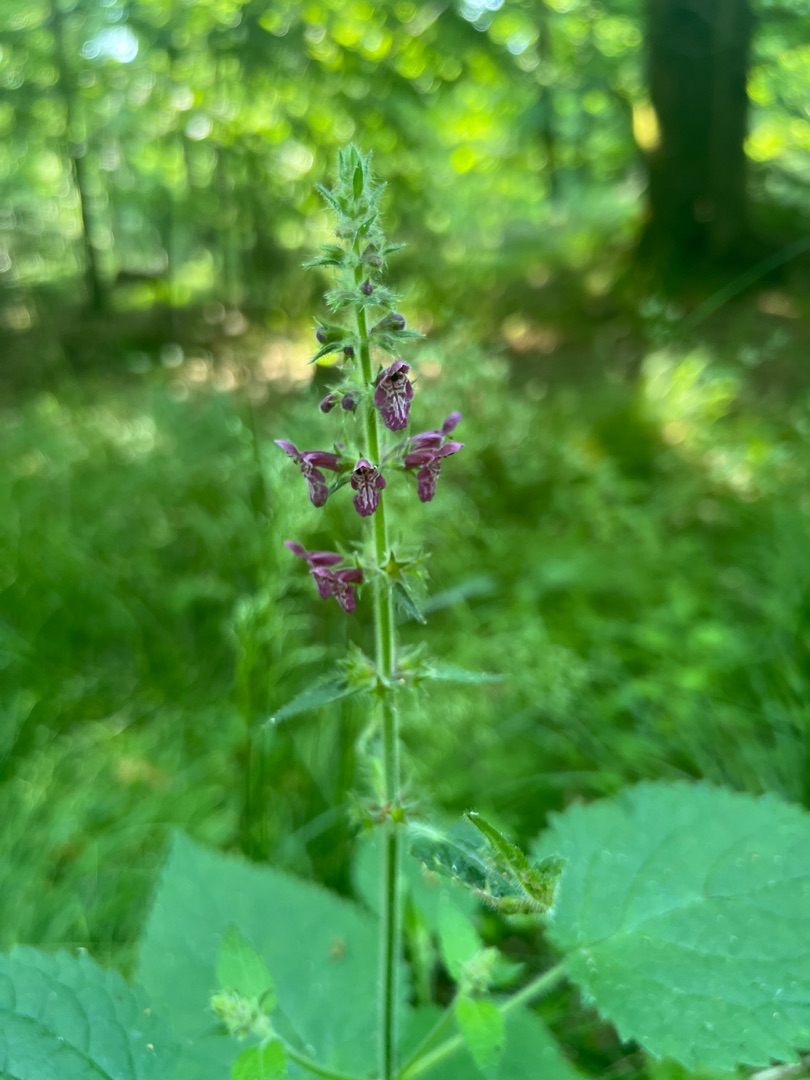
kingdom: Plantae
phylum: Tracheophyta
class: Magnoliopsida
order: Lamiales
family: Lamiaceae
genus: Stachys
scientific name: Stachys sylvatica
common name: Skov-galtetand
